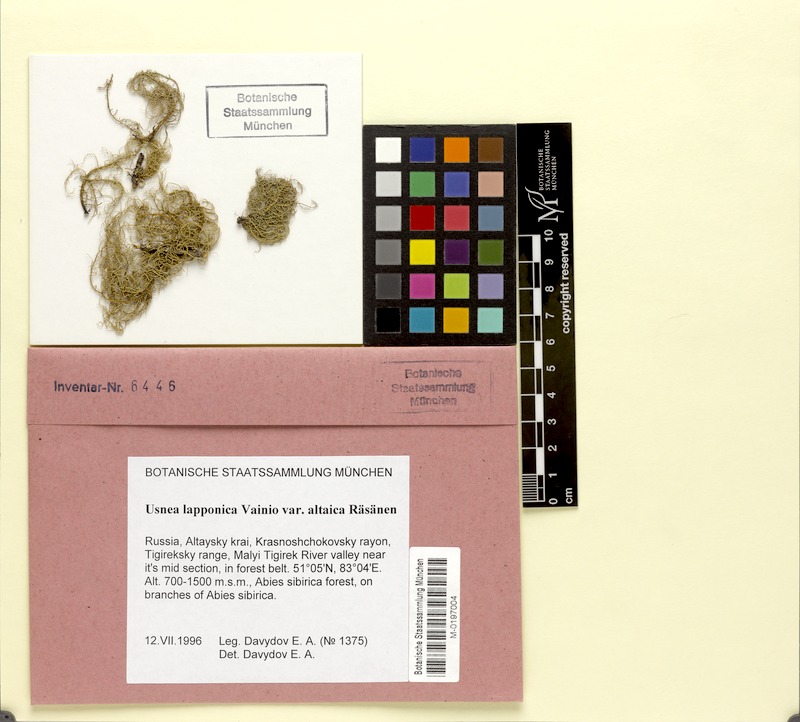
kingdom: Fungi
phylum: Ascomycota
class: Lecanoromycetes
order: Lecanorales
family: Parmeliaceae
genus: Usnea
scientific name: Usnea lapponica
